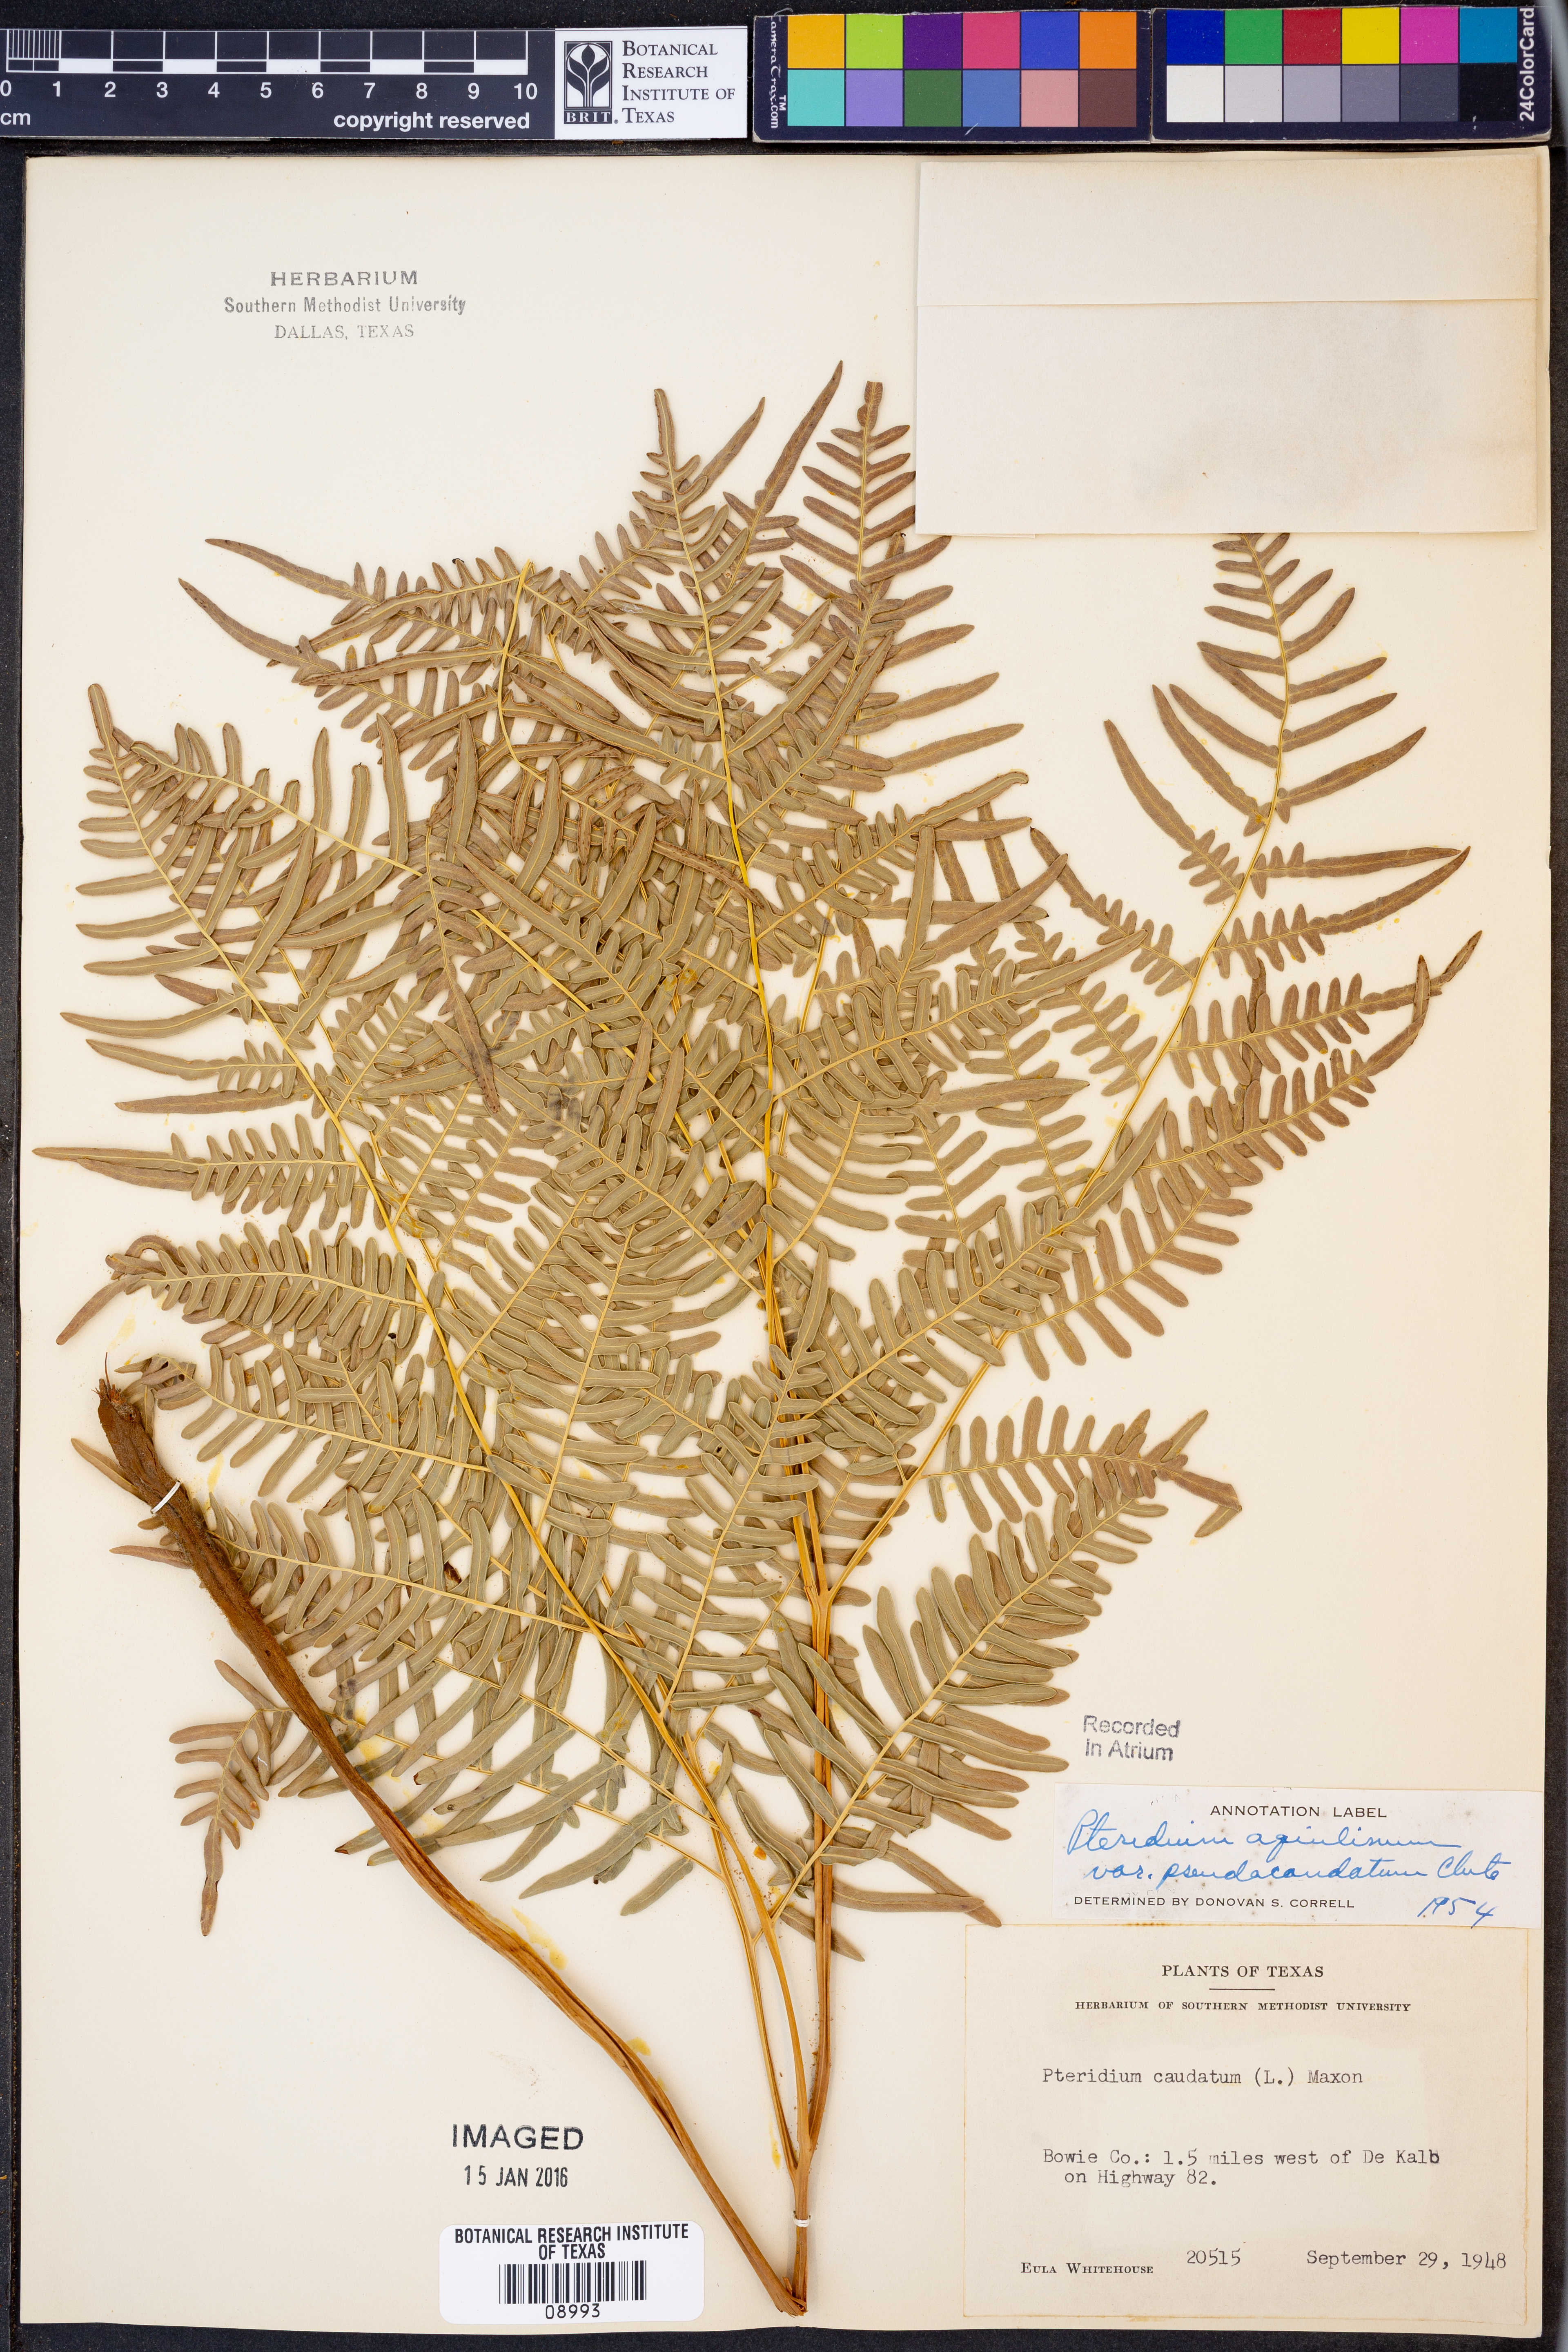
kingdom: Plantae
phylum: Tracheophyta
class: Polypodiopsida
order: Polypodiales
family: Dennstaedtiaceae
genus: Pteridium
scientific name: Pteridium aquilinum
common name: Bracken
